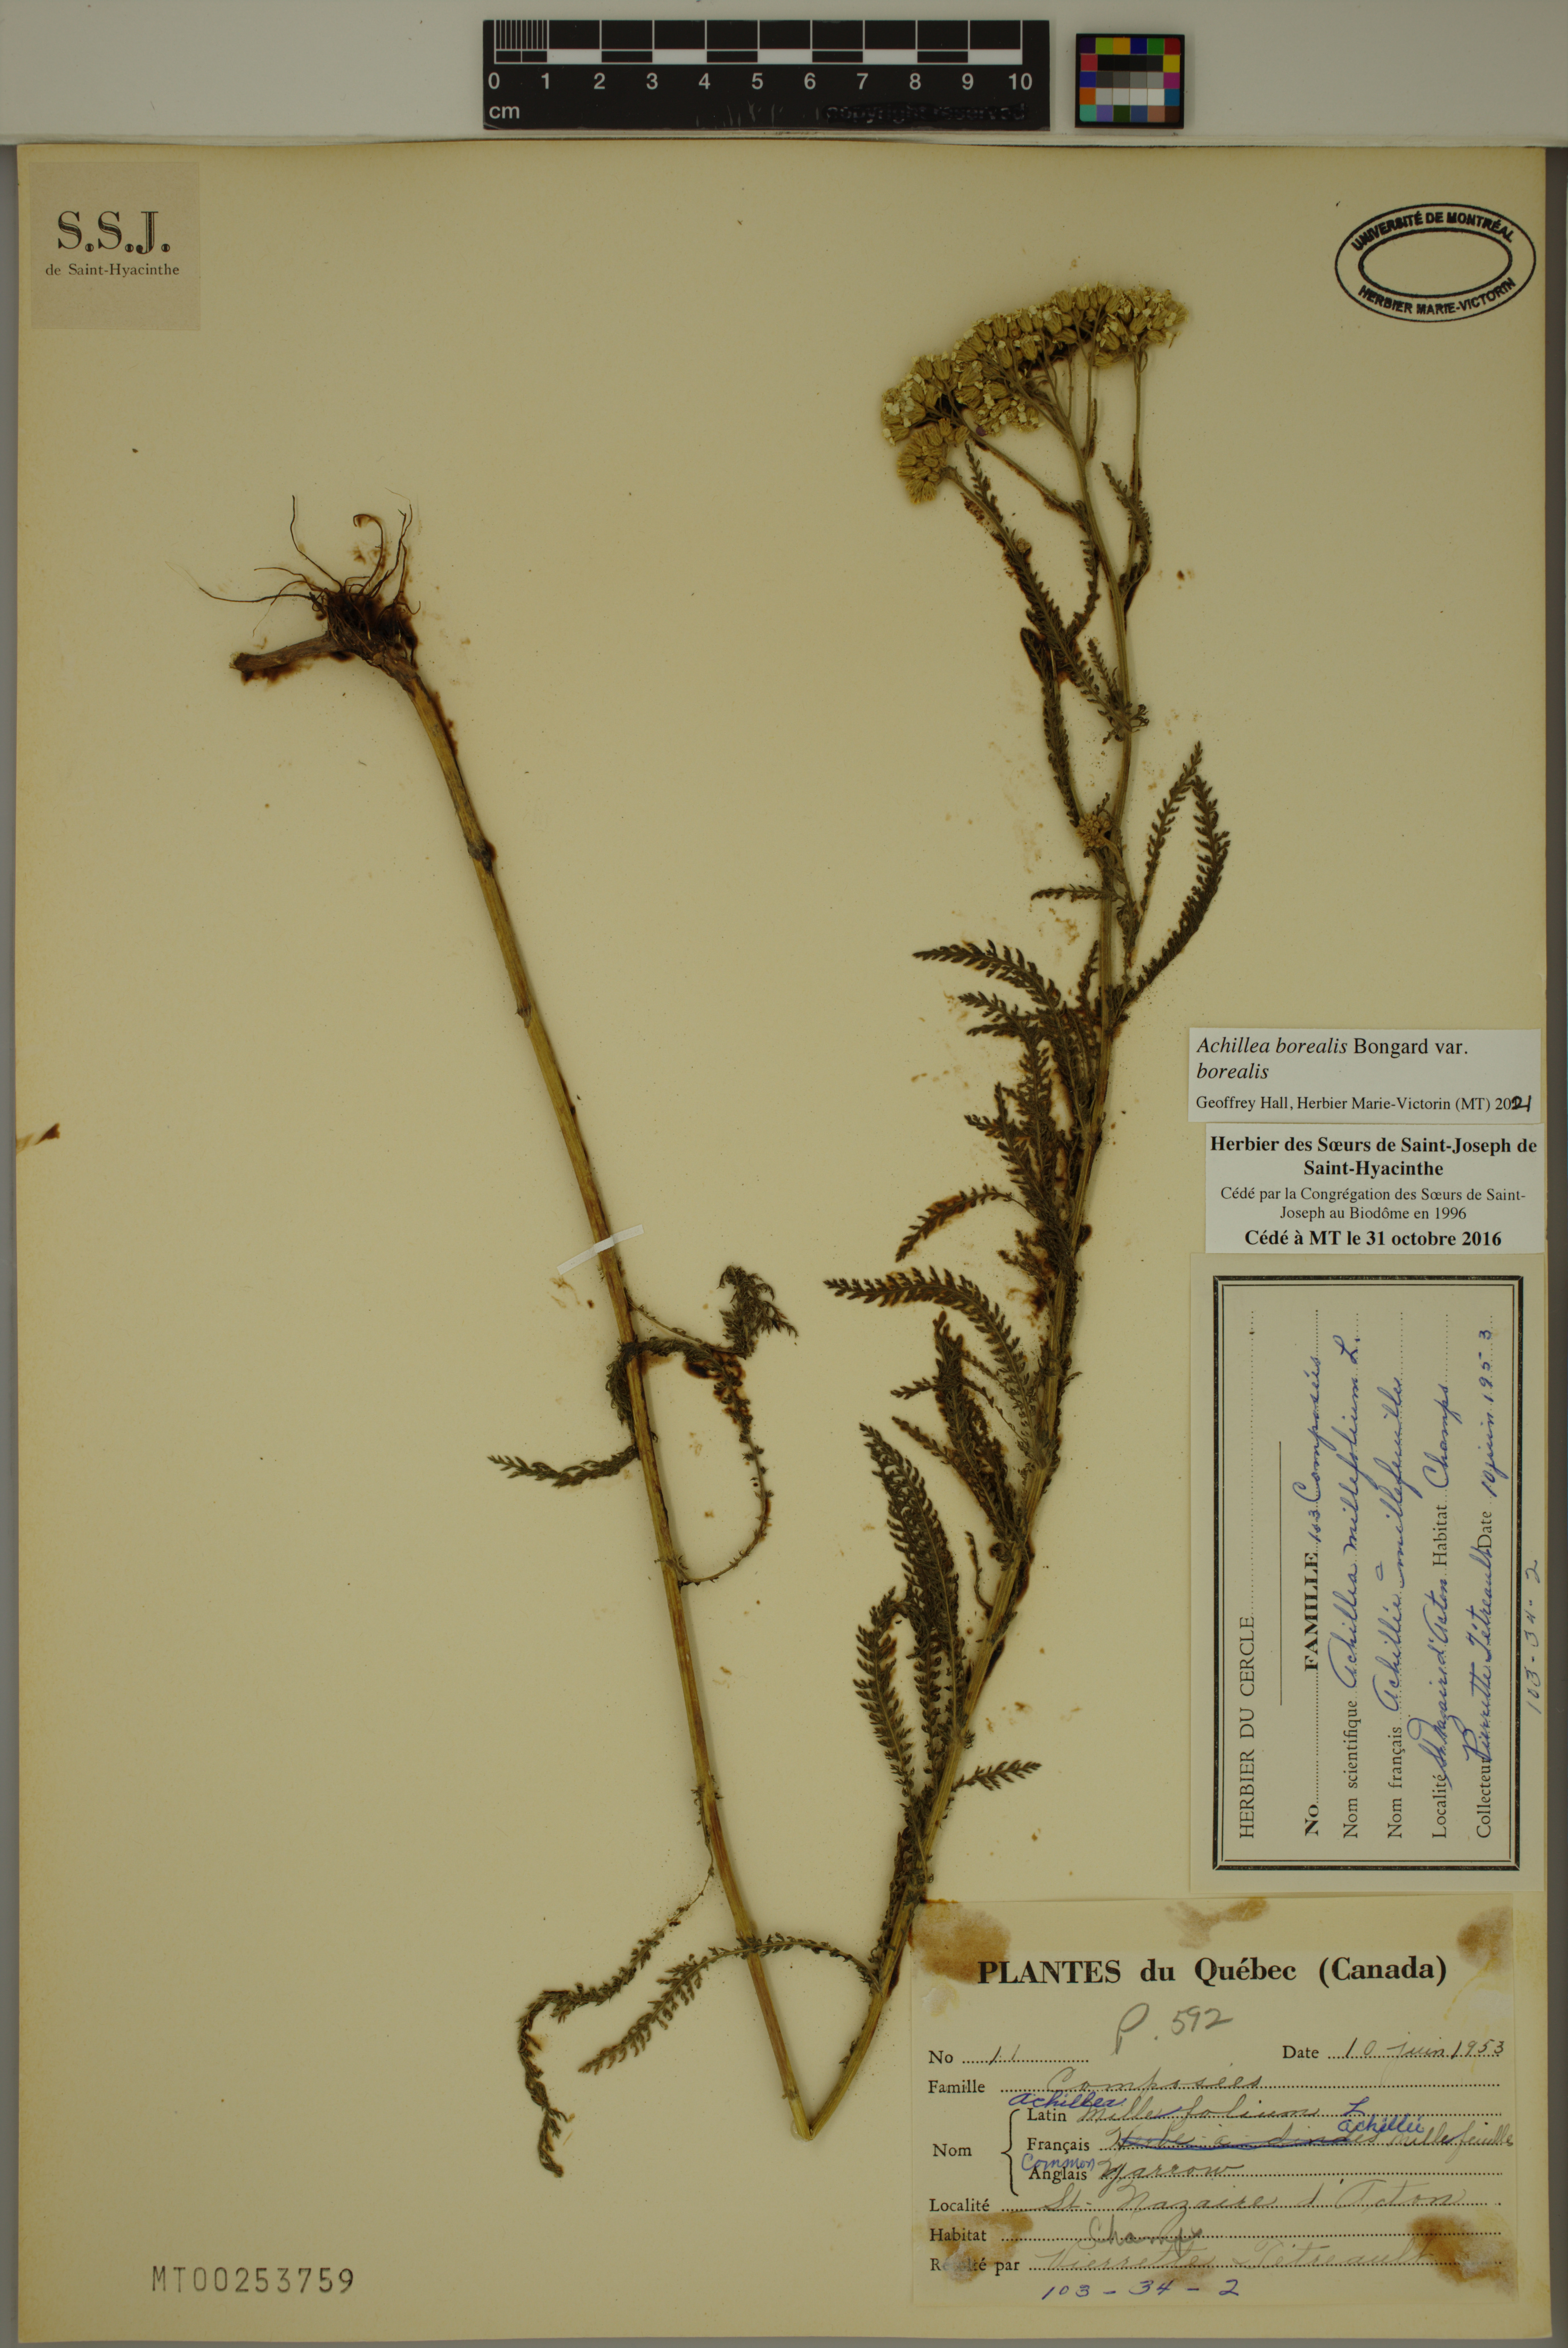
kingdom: Plantae
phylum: Tracheophyta
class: Magnoliopsida
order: Asterales
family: Asteraceae
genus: Achillea
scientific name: Achillea millefolium
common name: Yarrow
